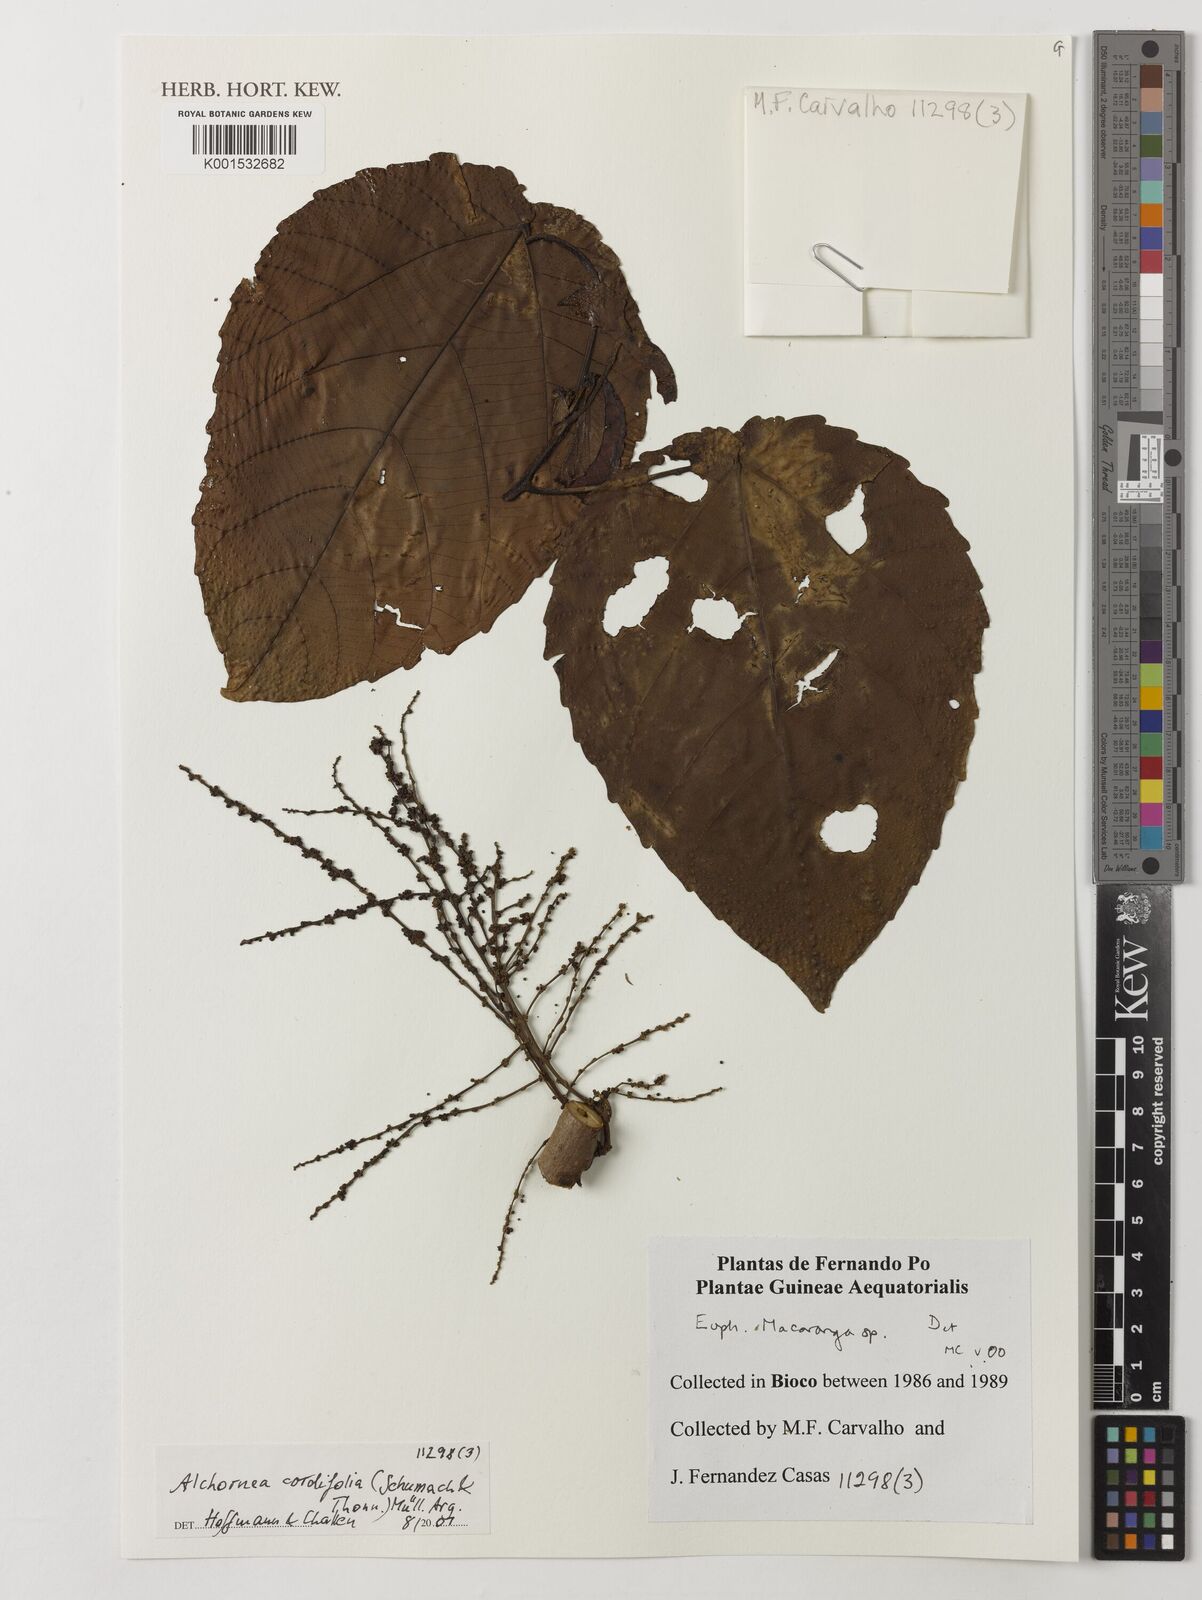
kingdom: Plantae
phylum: Tracheophyta
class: Magnoliopsida
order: Malpighiales
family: Euphorbiaceae
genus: Alchornea
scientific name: Alchornea cordifolia
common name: Christmasbush
